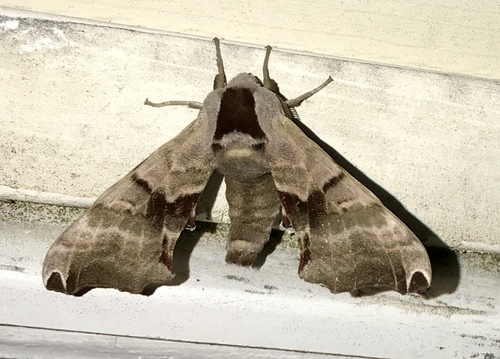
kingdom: Animalia
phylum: Arthropoda
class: Insecta
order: Lepidoptera
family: Sphingidae
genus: Smerinthus
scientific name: Smerinthus jamaicensis
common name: Twin spotted sphinx
